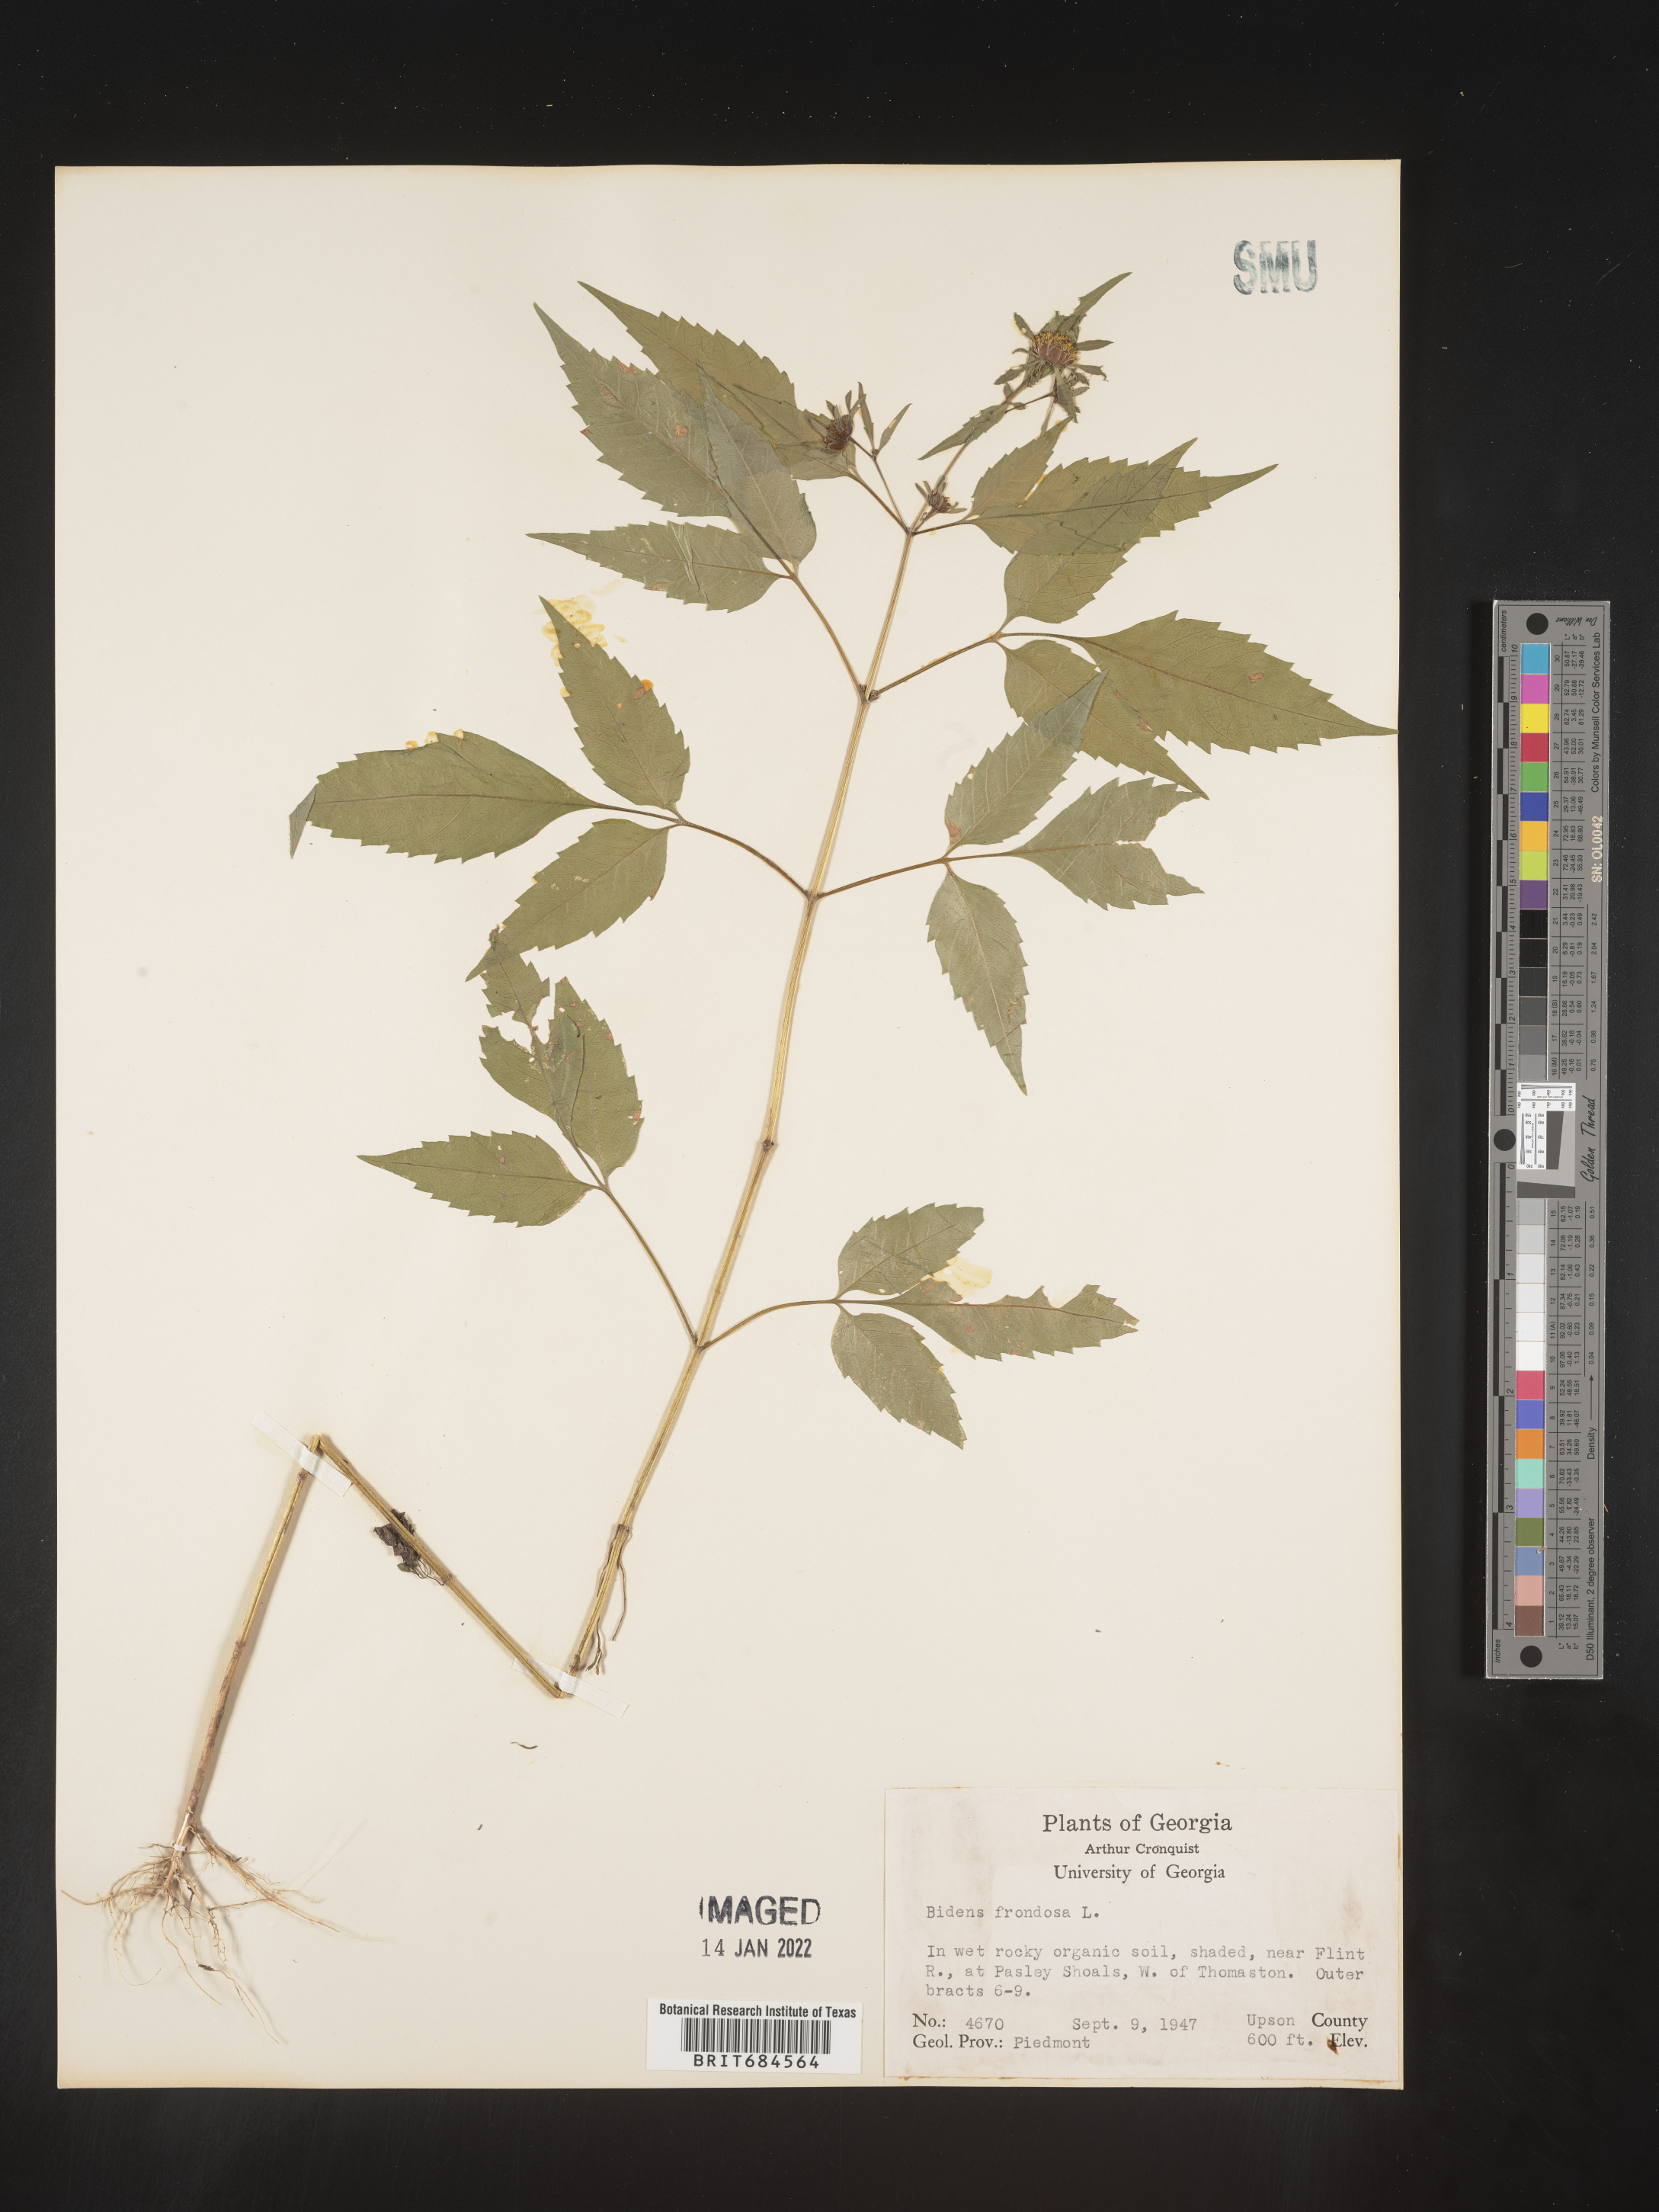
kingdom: Plantae
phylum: Tracheophyta
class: Magnoliopsida
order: Asterales
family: Asteraceae
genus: Bidens
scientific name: Bidens frondosa
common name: Beggarticks
